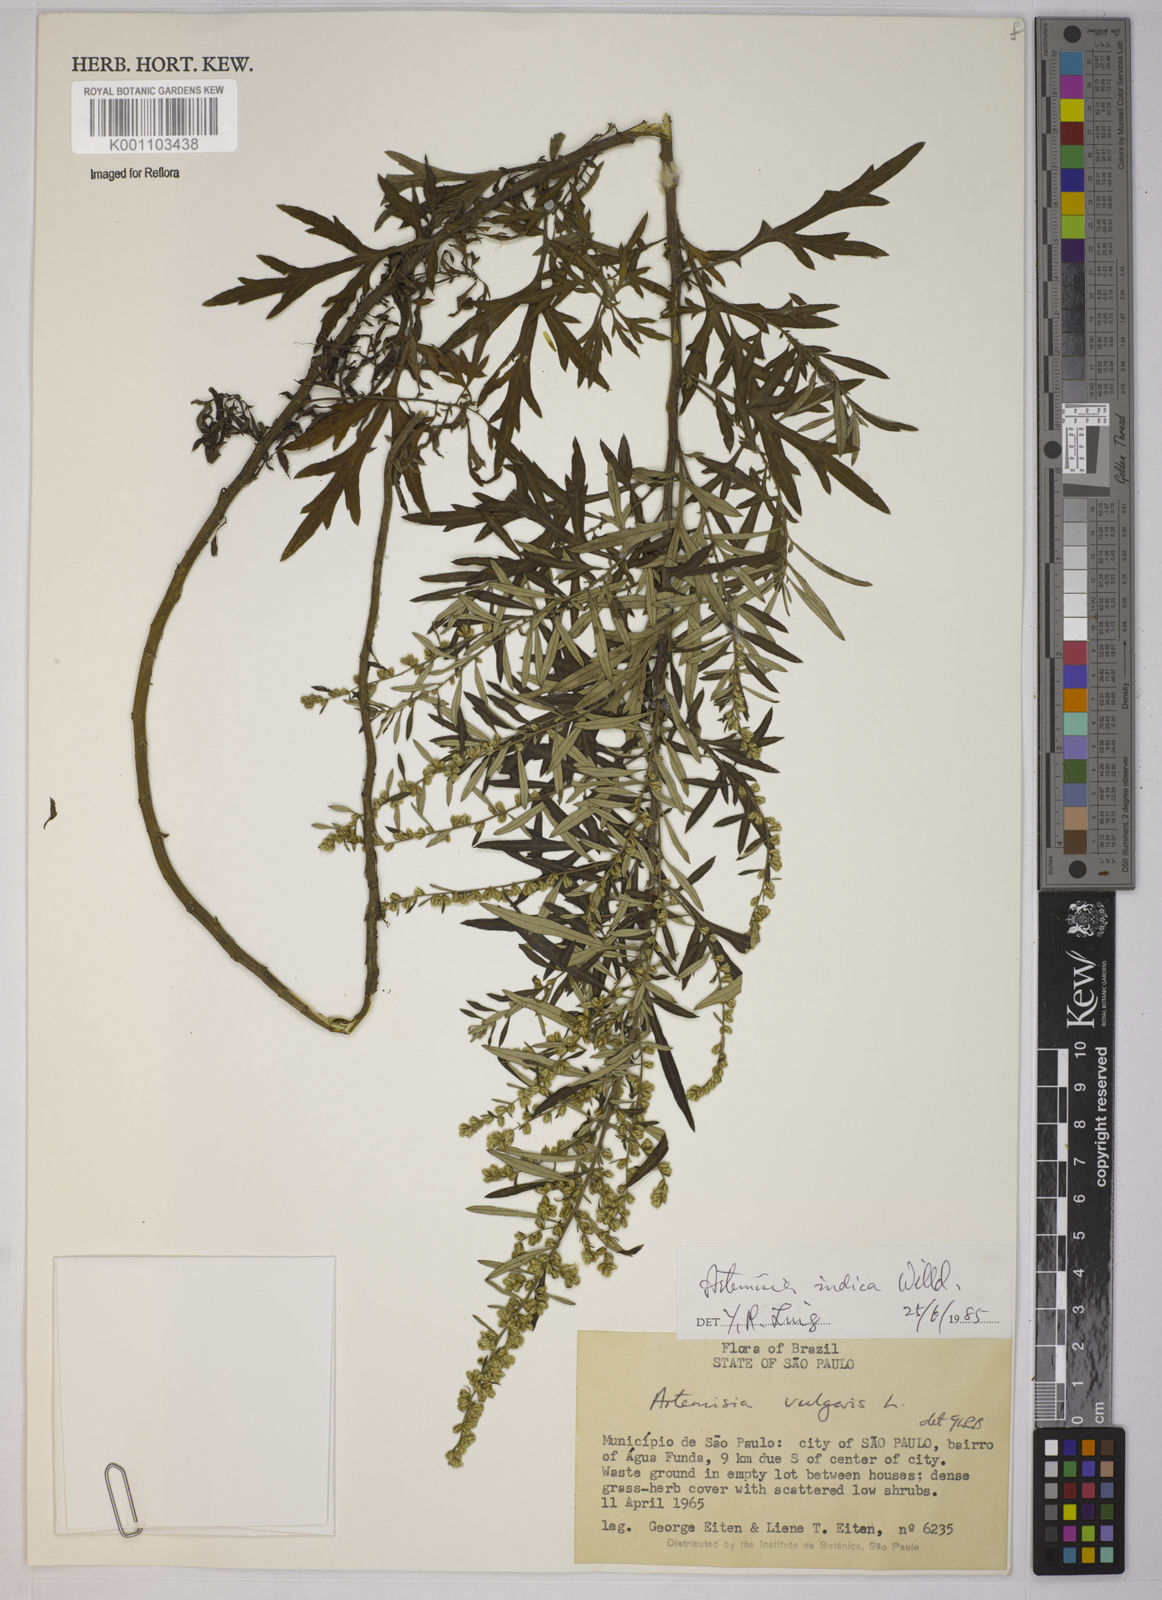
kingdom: Plantae
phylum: Tracheophyta
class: Magnoliopsida
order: Asterales
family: Asteraceae
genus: Artemisia
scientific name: Artemisia indica
